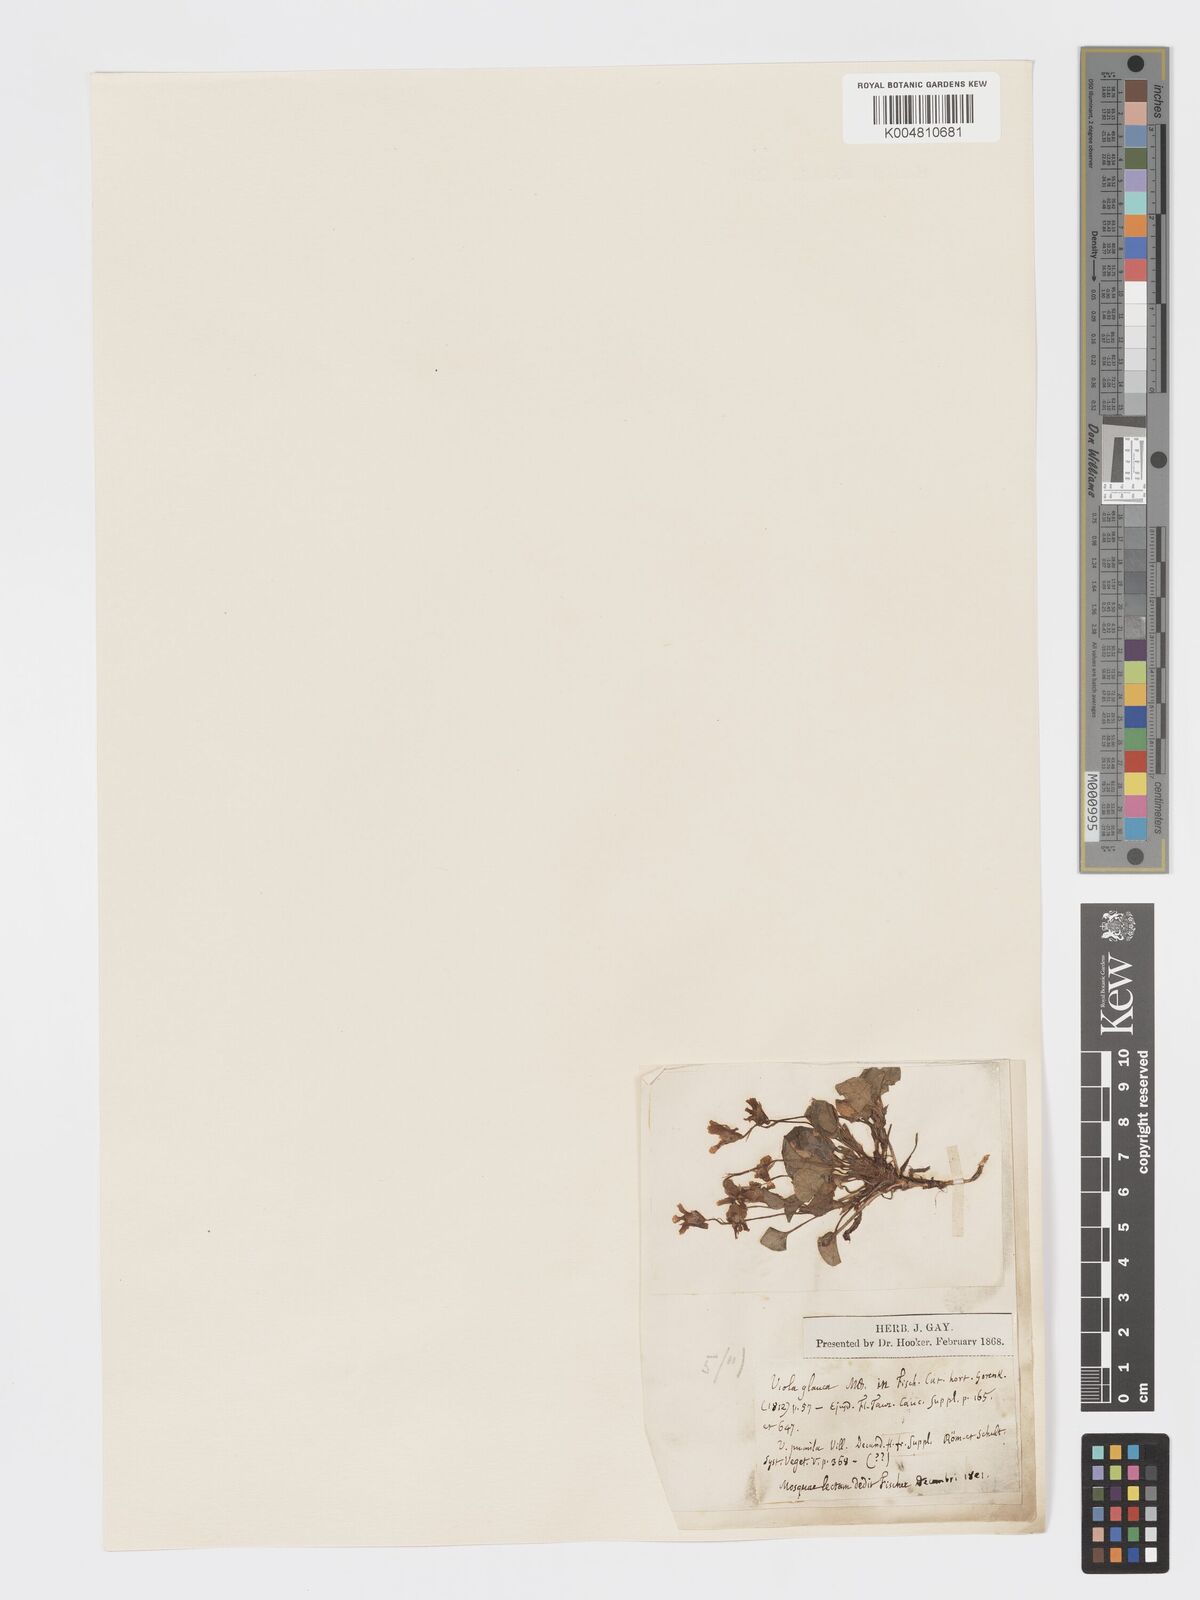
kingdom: Plantae
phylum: Tracheophyta
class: Magnoliopsida
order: Malpighiales
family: Violaceae
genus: Viola
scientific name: Viola rupestris
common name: Teesdale violet
